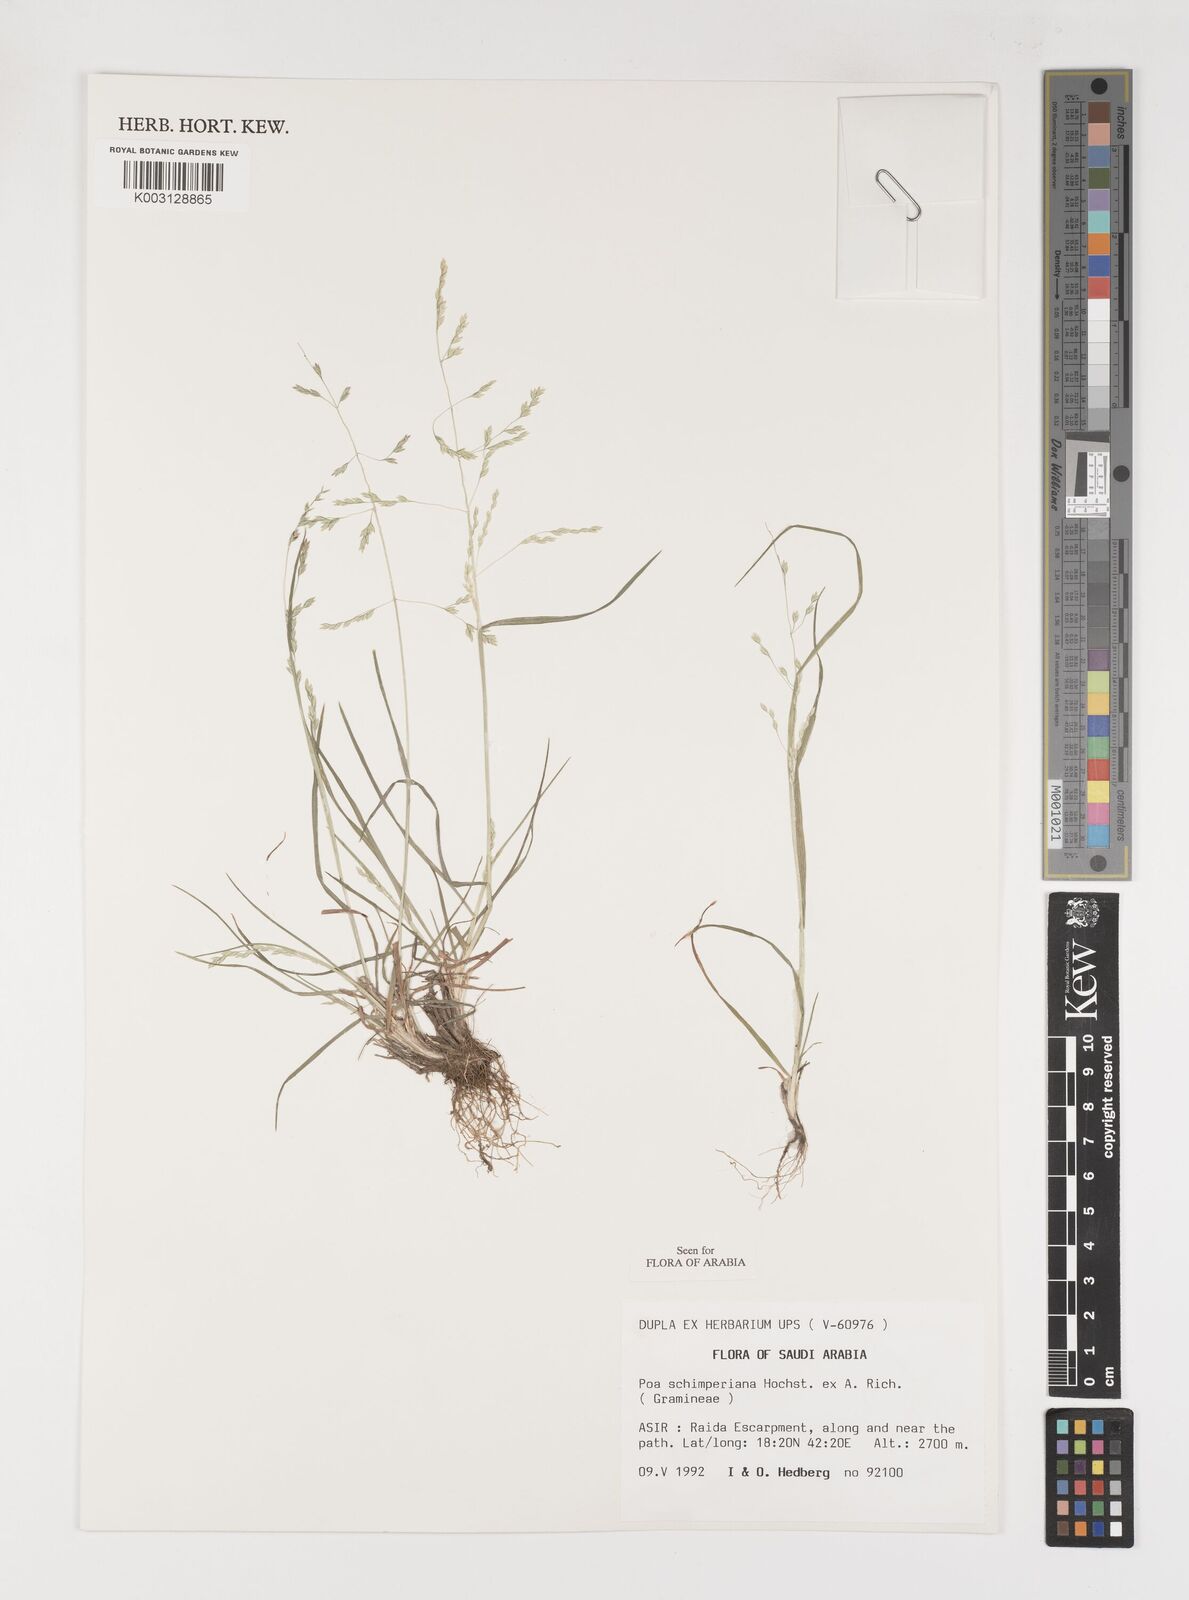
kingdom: Plantae
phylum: Tracheophyta
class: Liliopsida
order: Poales
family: Poaceae
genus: Poa
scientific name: Poa schimperiana
